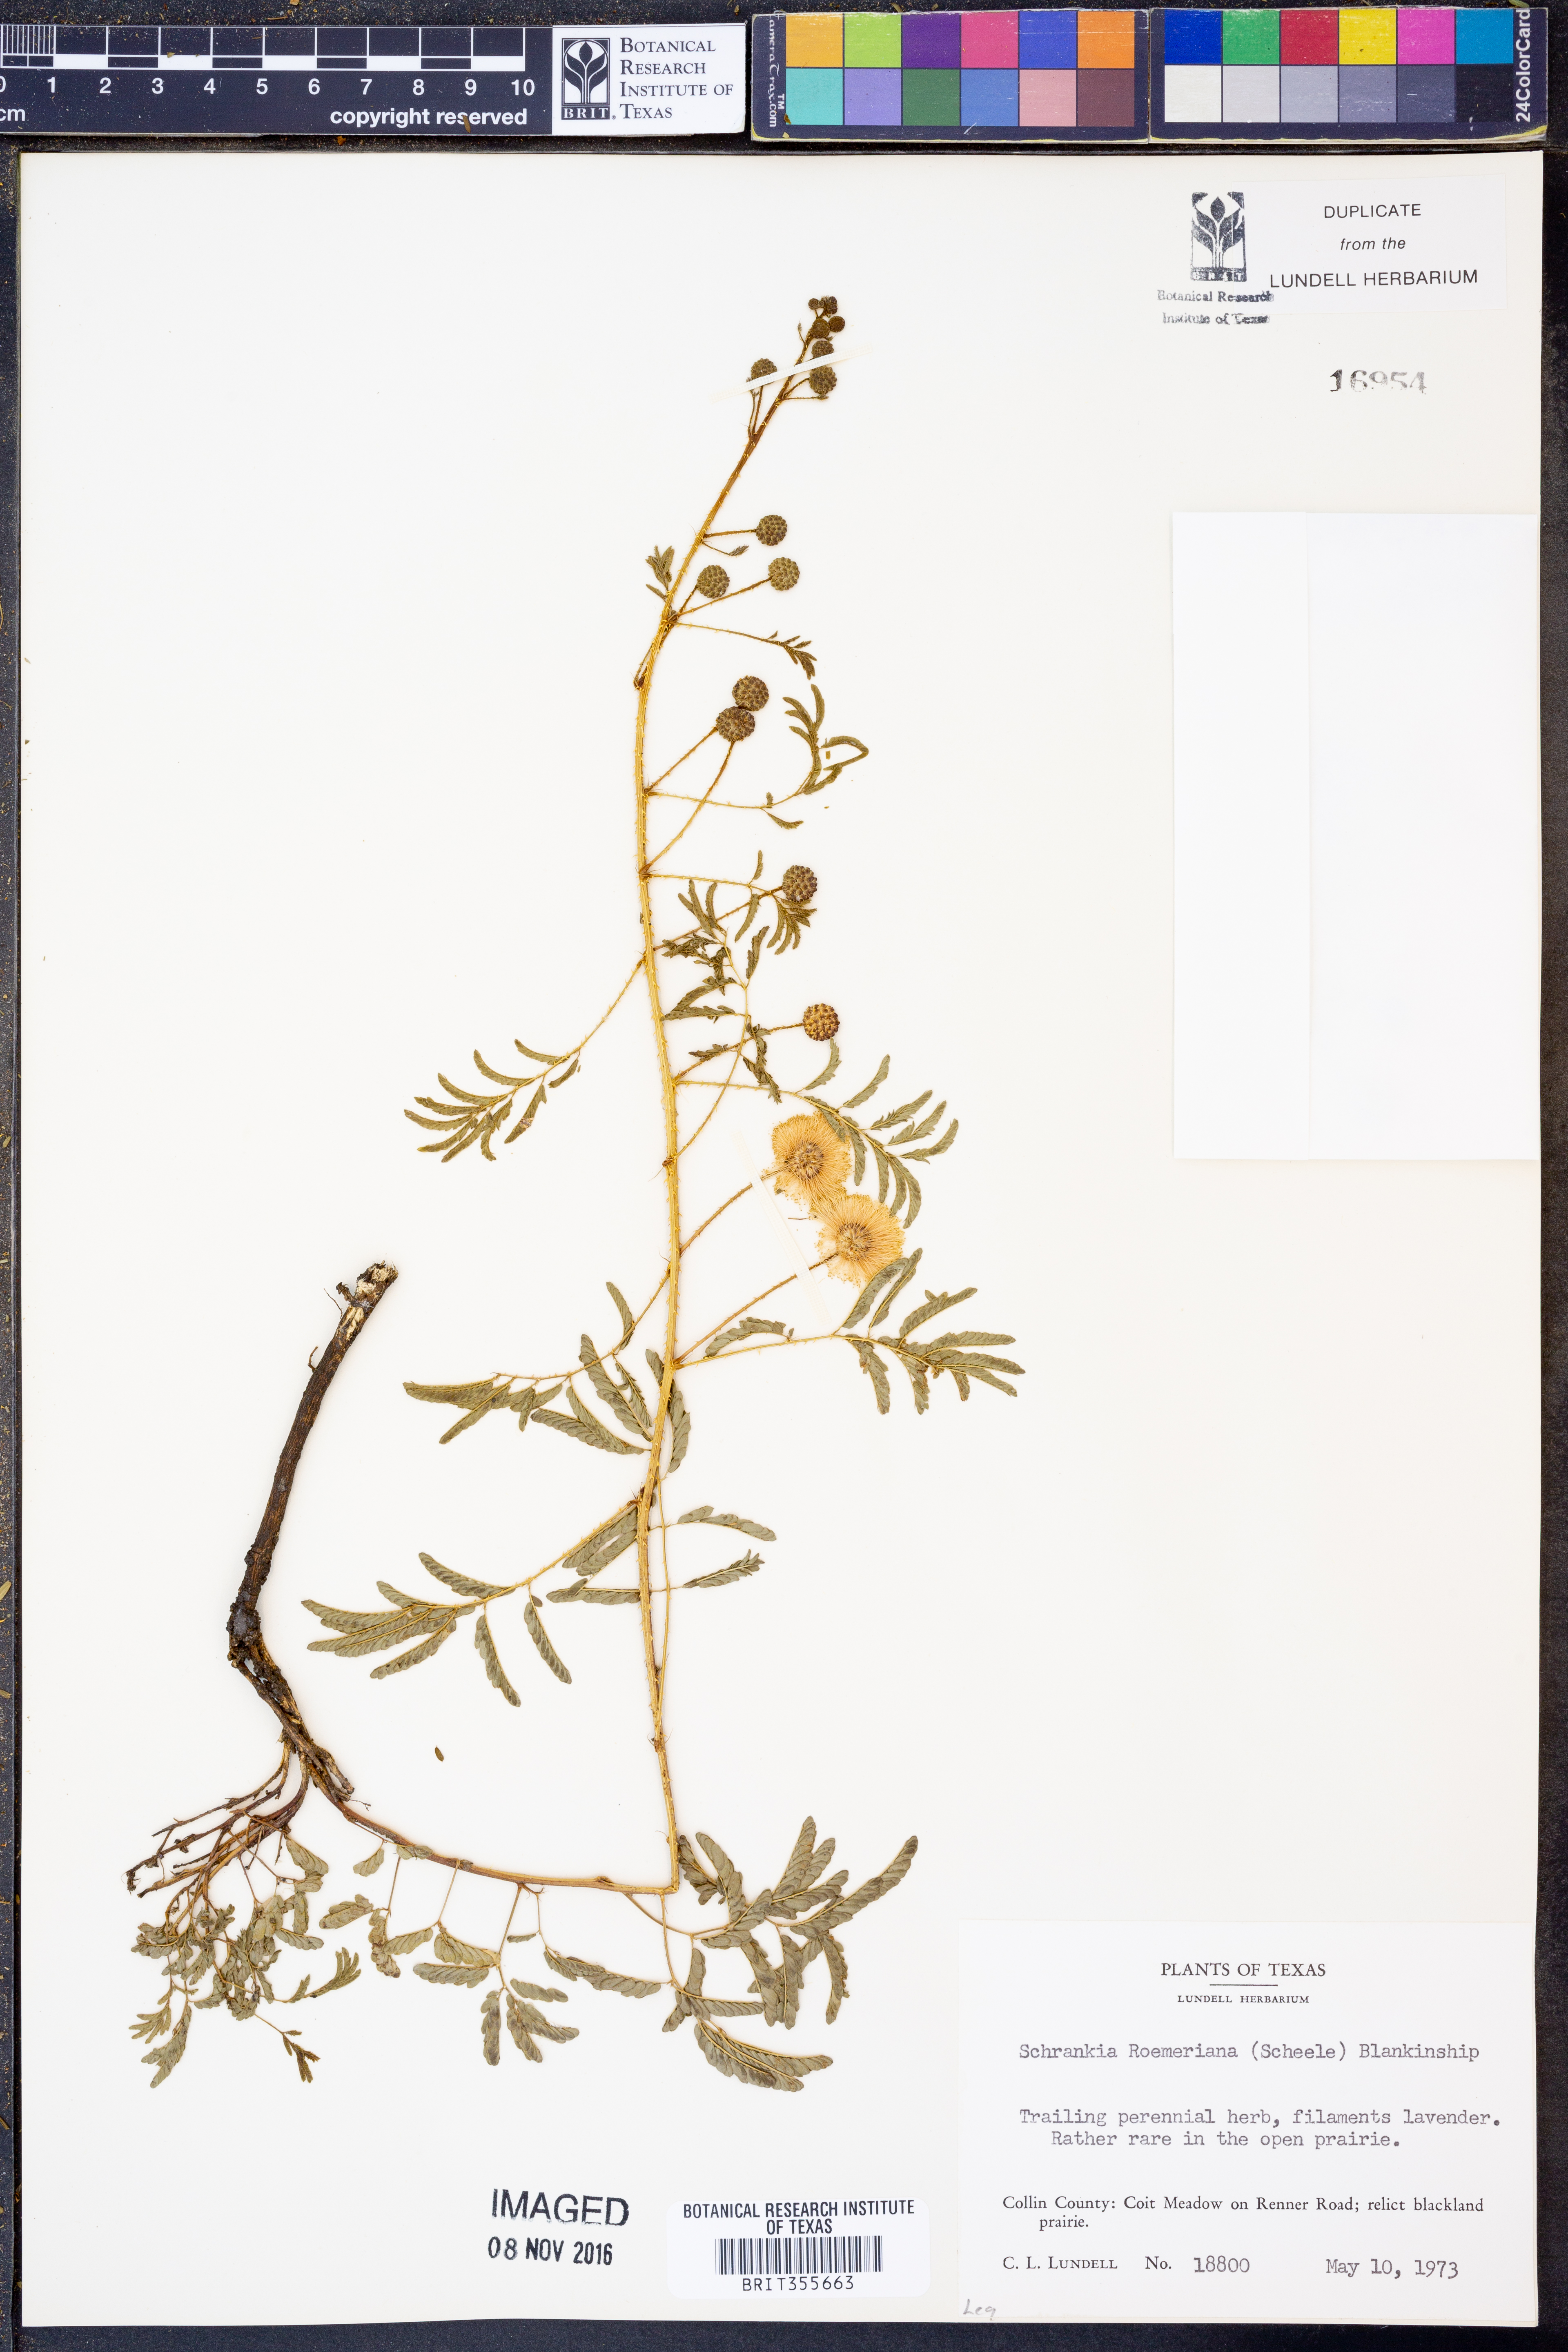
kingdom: Plantae
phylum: Tracheophyta
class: Magnoliopsida
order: Fabales
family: Fabaceae
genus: Mimosa
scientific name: Mimosa quadrivalvis
